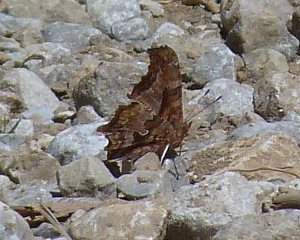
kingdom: Animalia
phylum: Arthropoda
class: Insecta
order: Lepidoptera
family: Nymphalidae
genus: Polygonia
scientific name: Polygonia comma
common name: Eastern Comma
